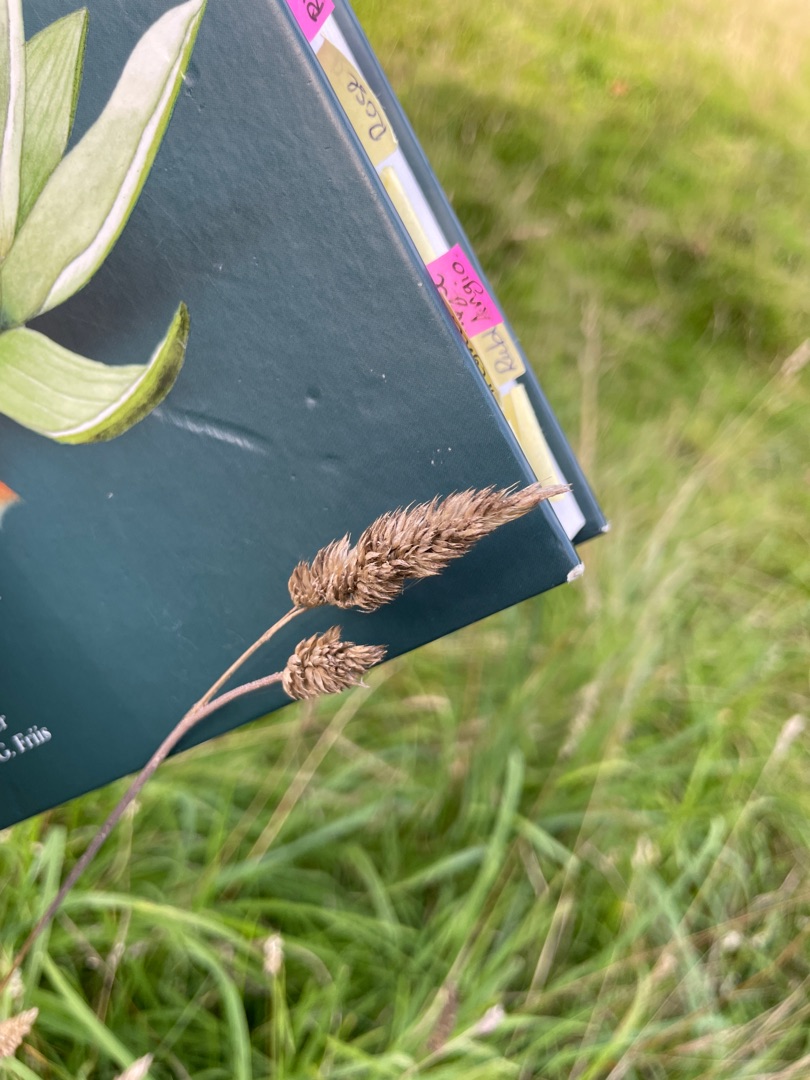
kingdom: Plantae
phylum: Tracheophyta
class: Liliopsida
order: Poales
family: Poaceae
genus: Dactylis
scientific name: Dactylis glomerata
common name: Almindelig hundegræs
